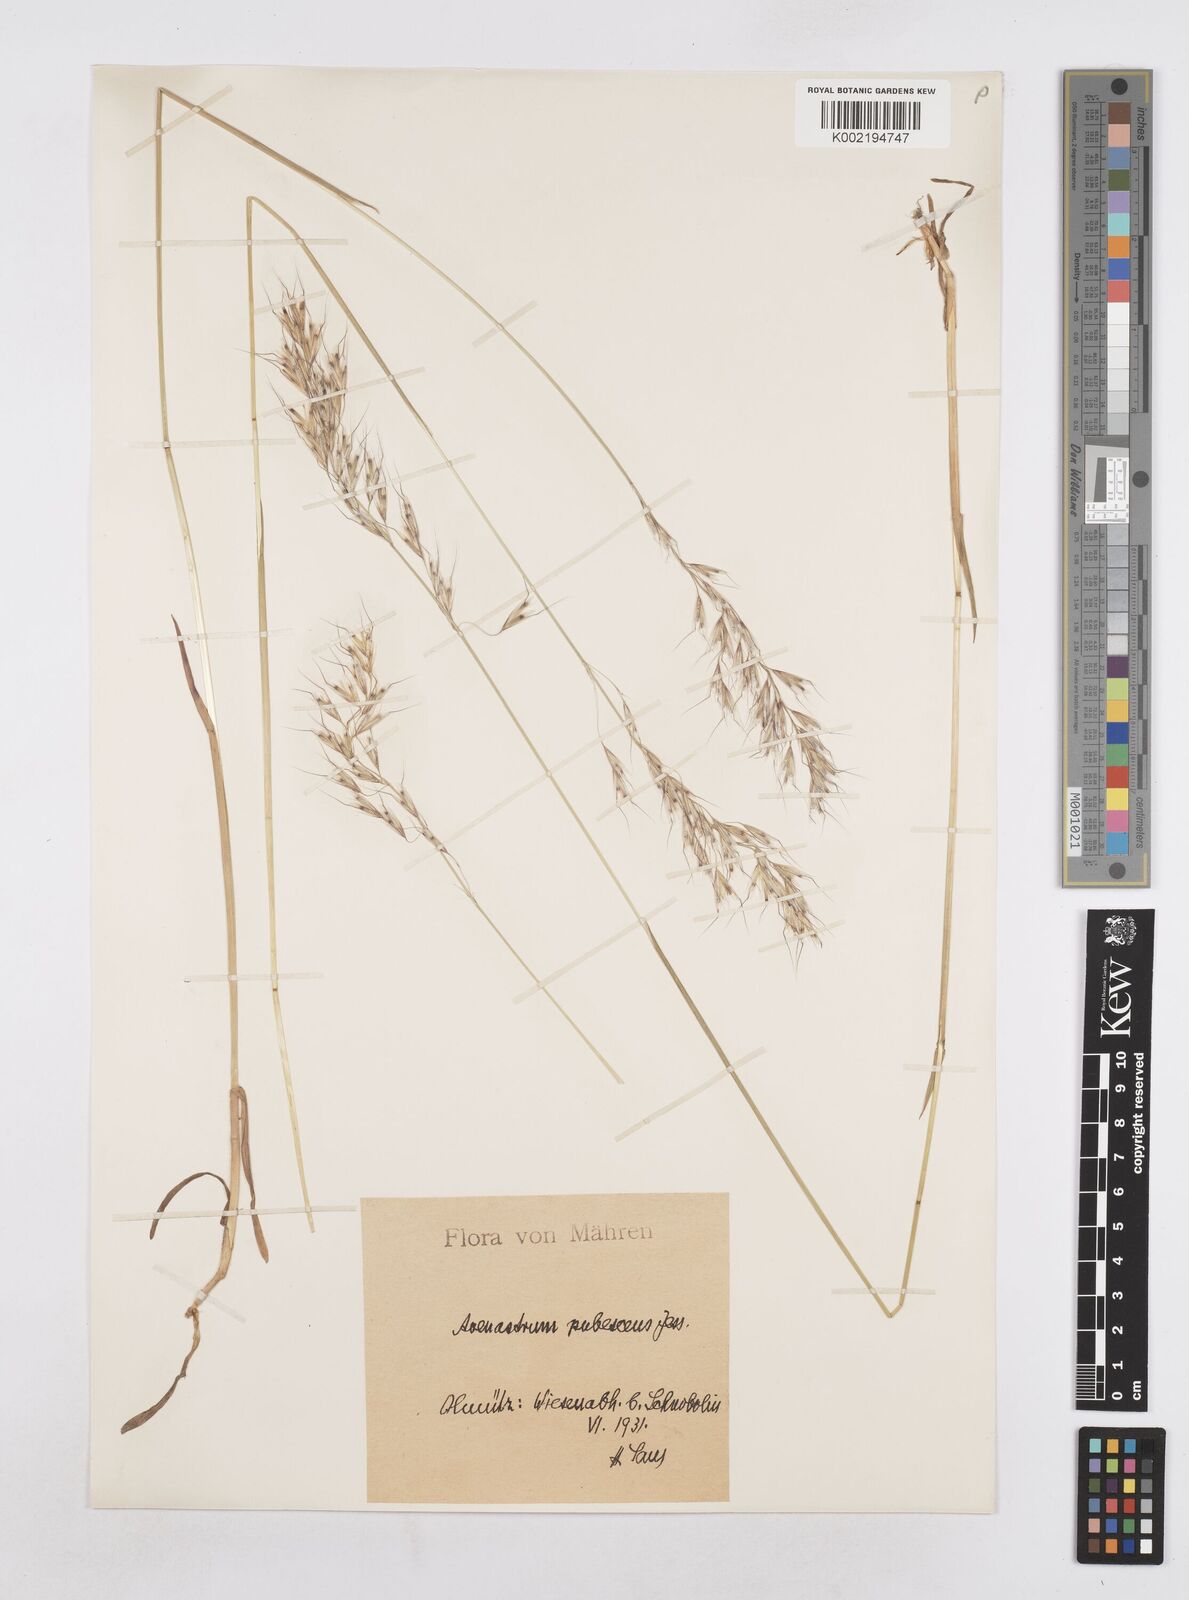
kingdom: Plantae
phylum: Tracheophyta
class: Liliopsida
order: Poales
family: Poaceae
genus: Avenula
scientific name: Avenula pubescens
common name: Downy alpine oatgrass
